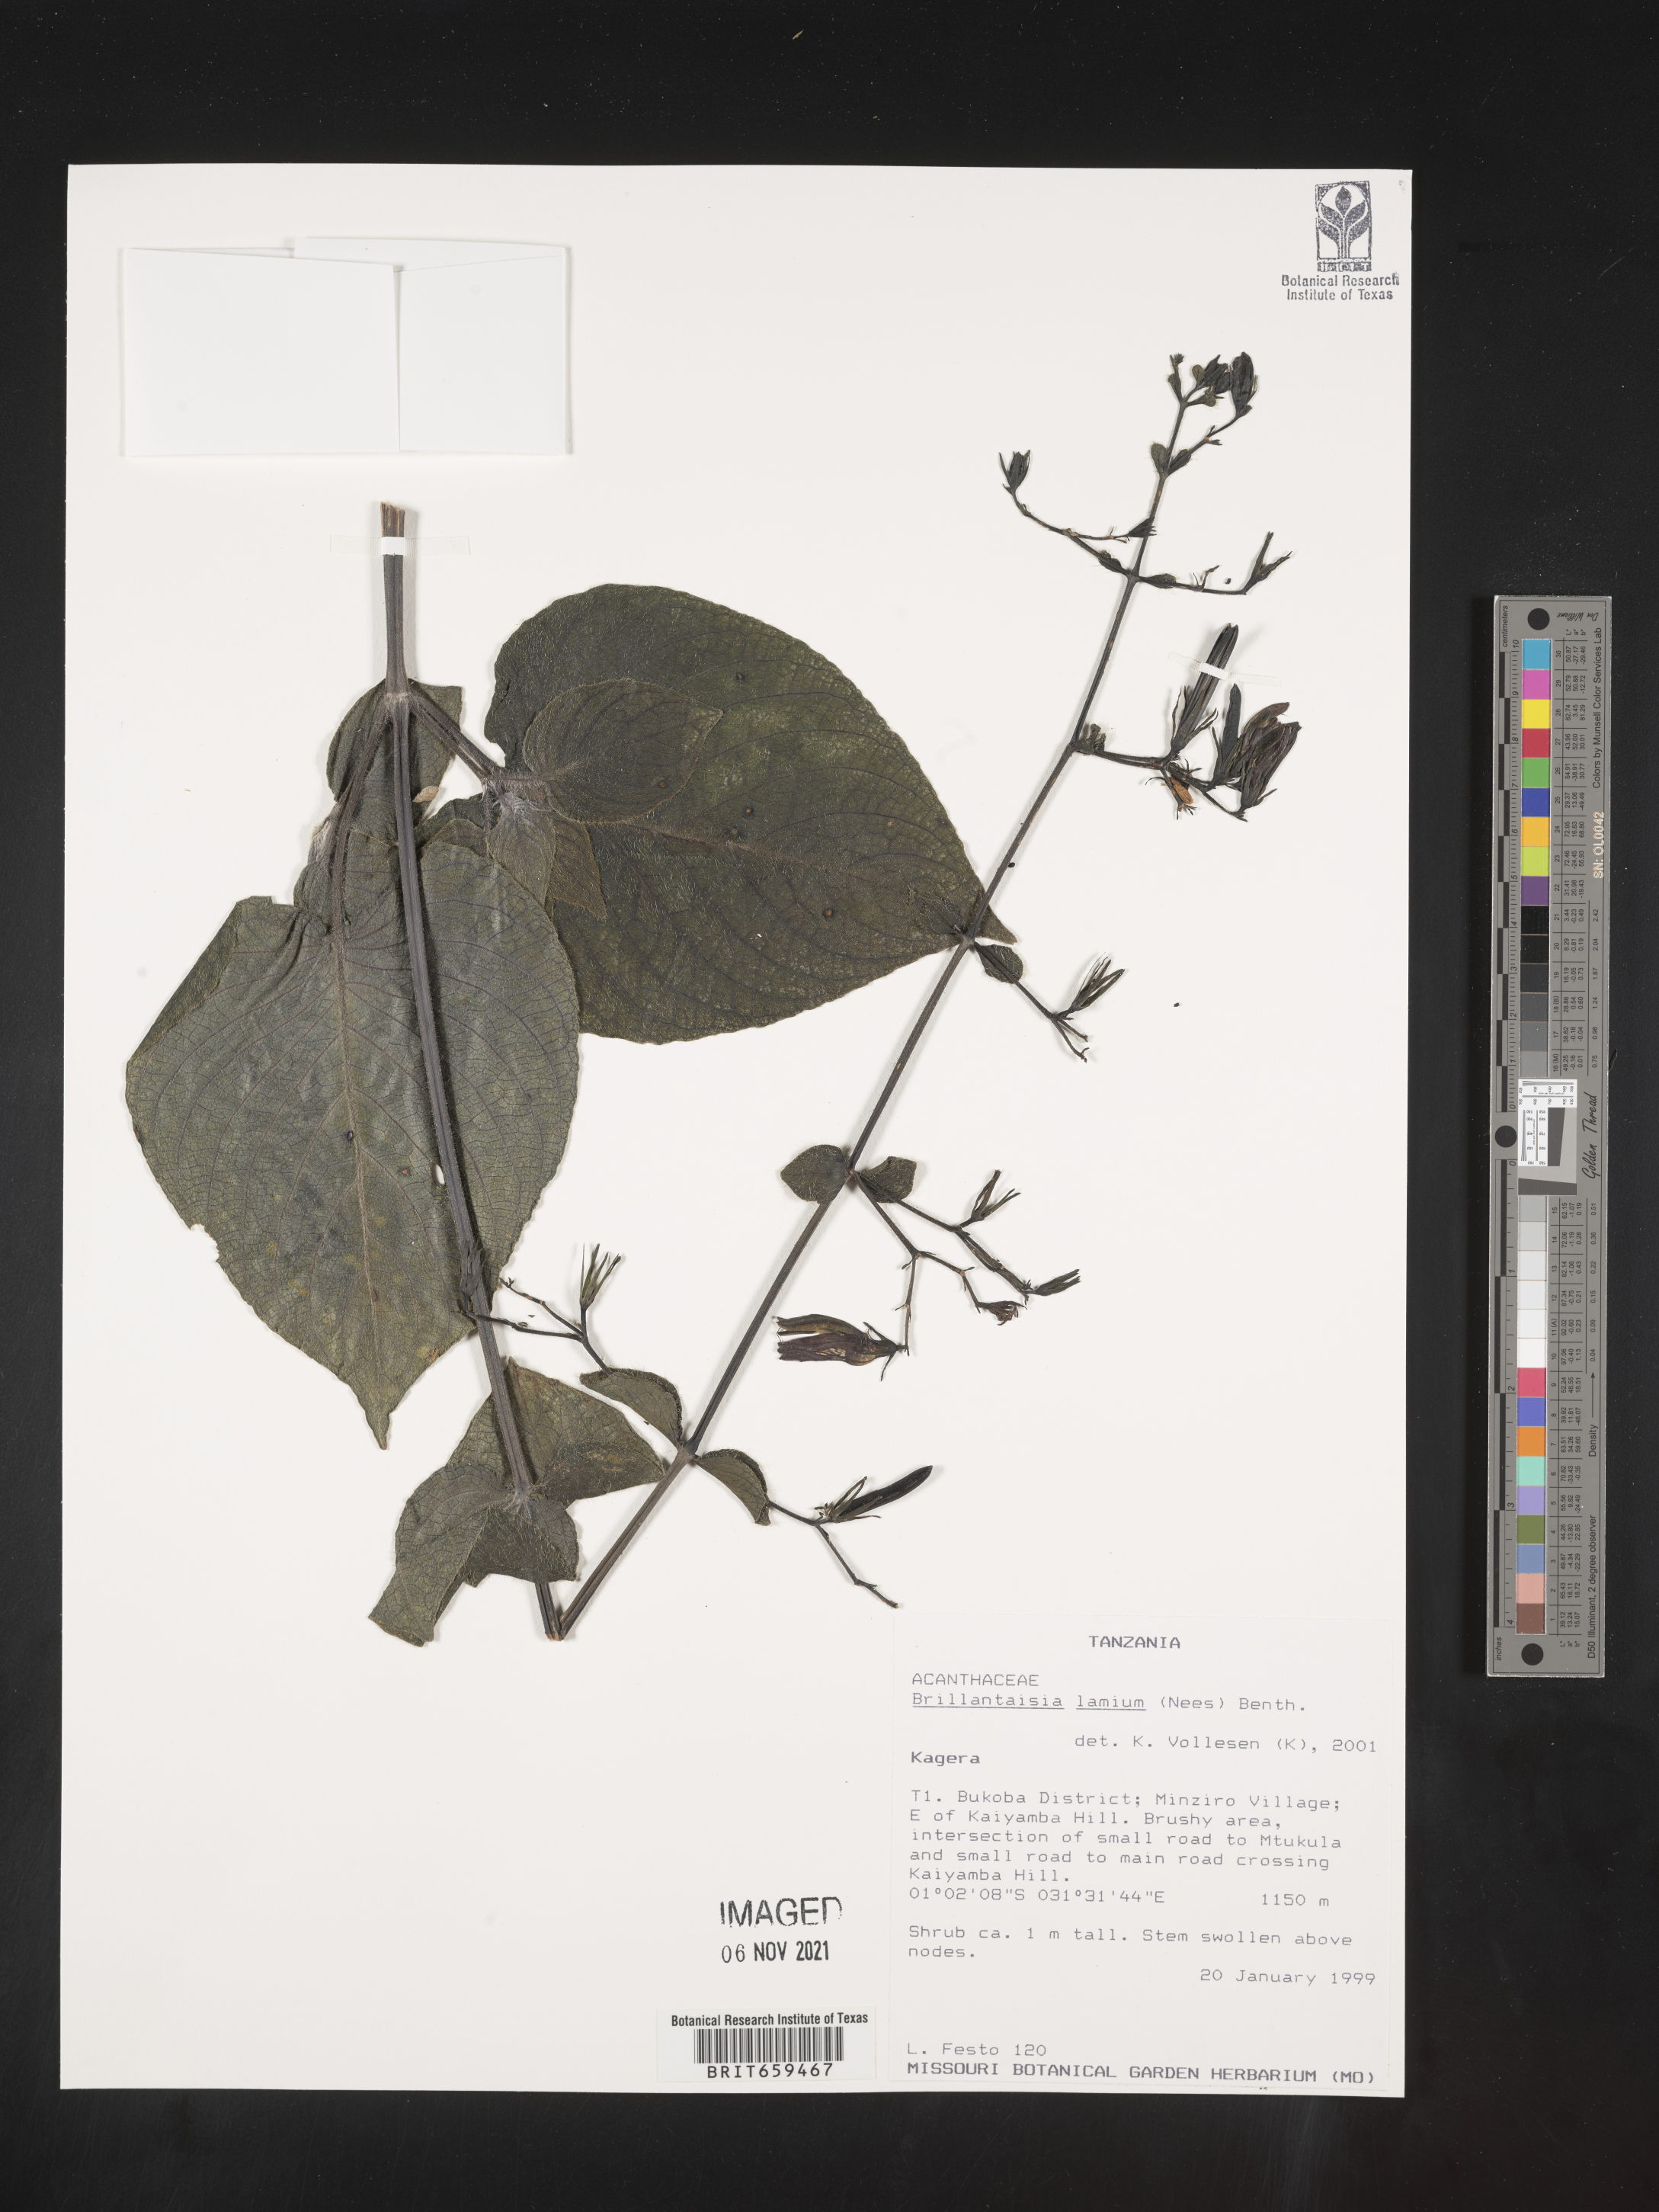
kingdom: Plantae
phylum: Tracheophyta
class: Magnoliopsida
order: Lamiales
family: Acanthaceae
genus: Brillantaisia
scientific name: Brillantaisia lamium
